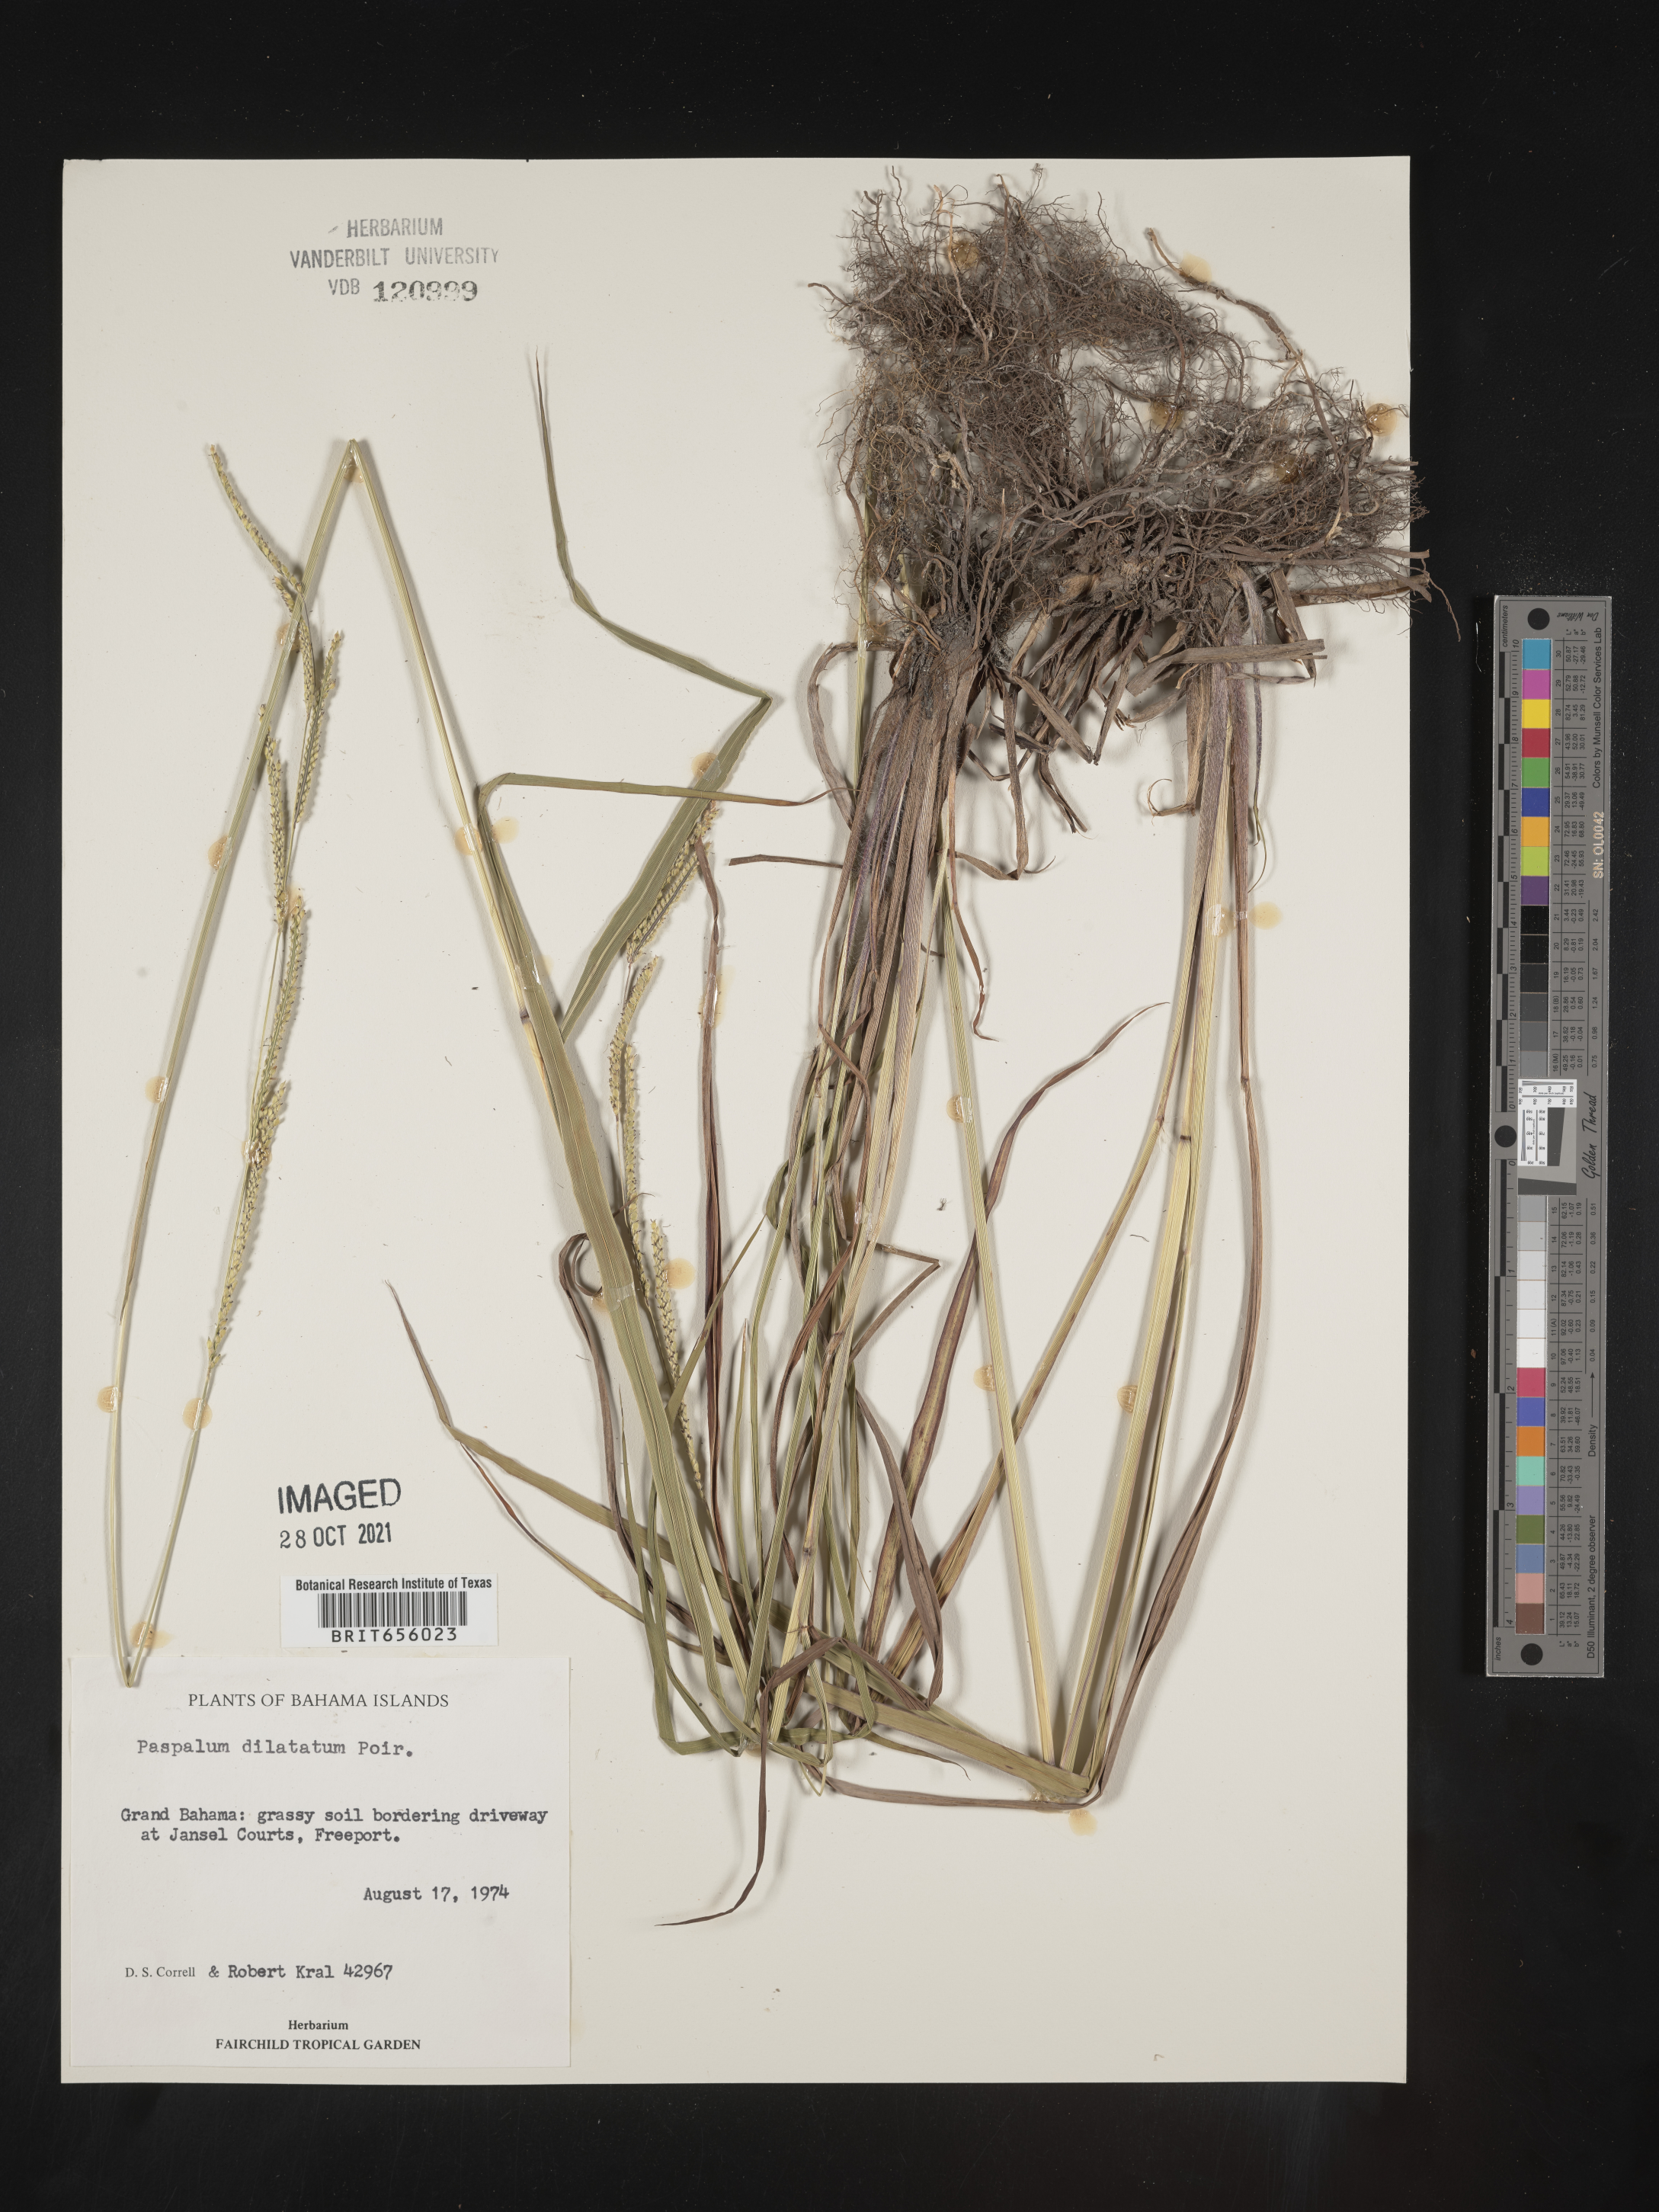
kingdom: Plantae
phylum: Tracheophyta
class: Liliopsida
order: Poales
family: Poaceae
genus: Paspalum
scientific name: Paspalum
